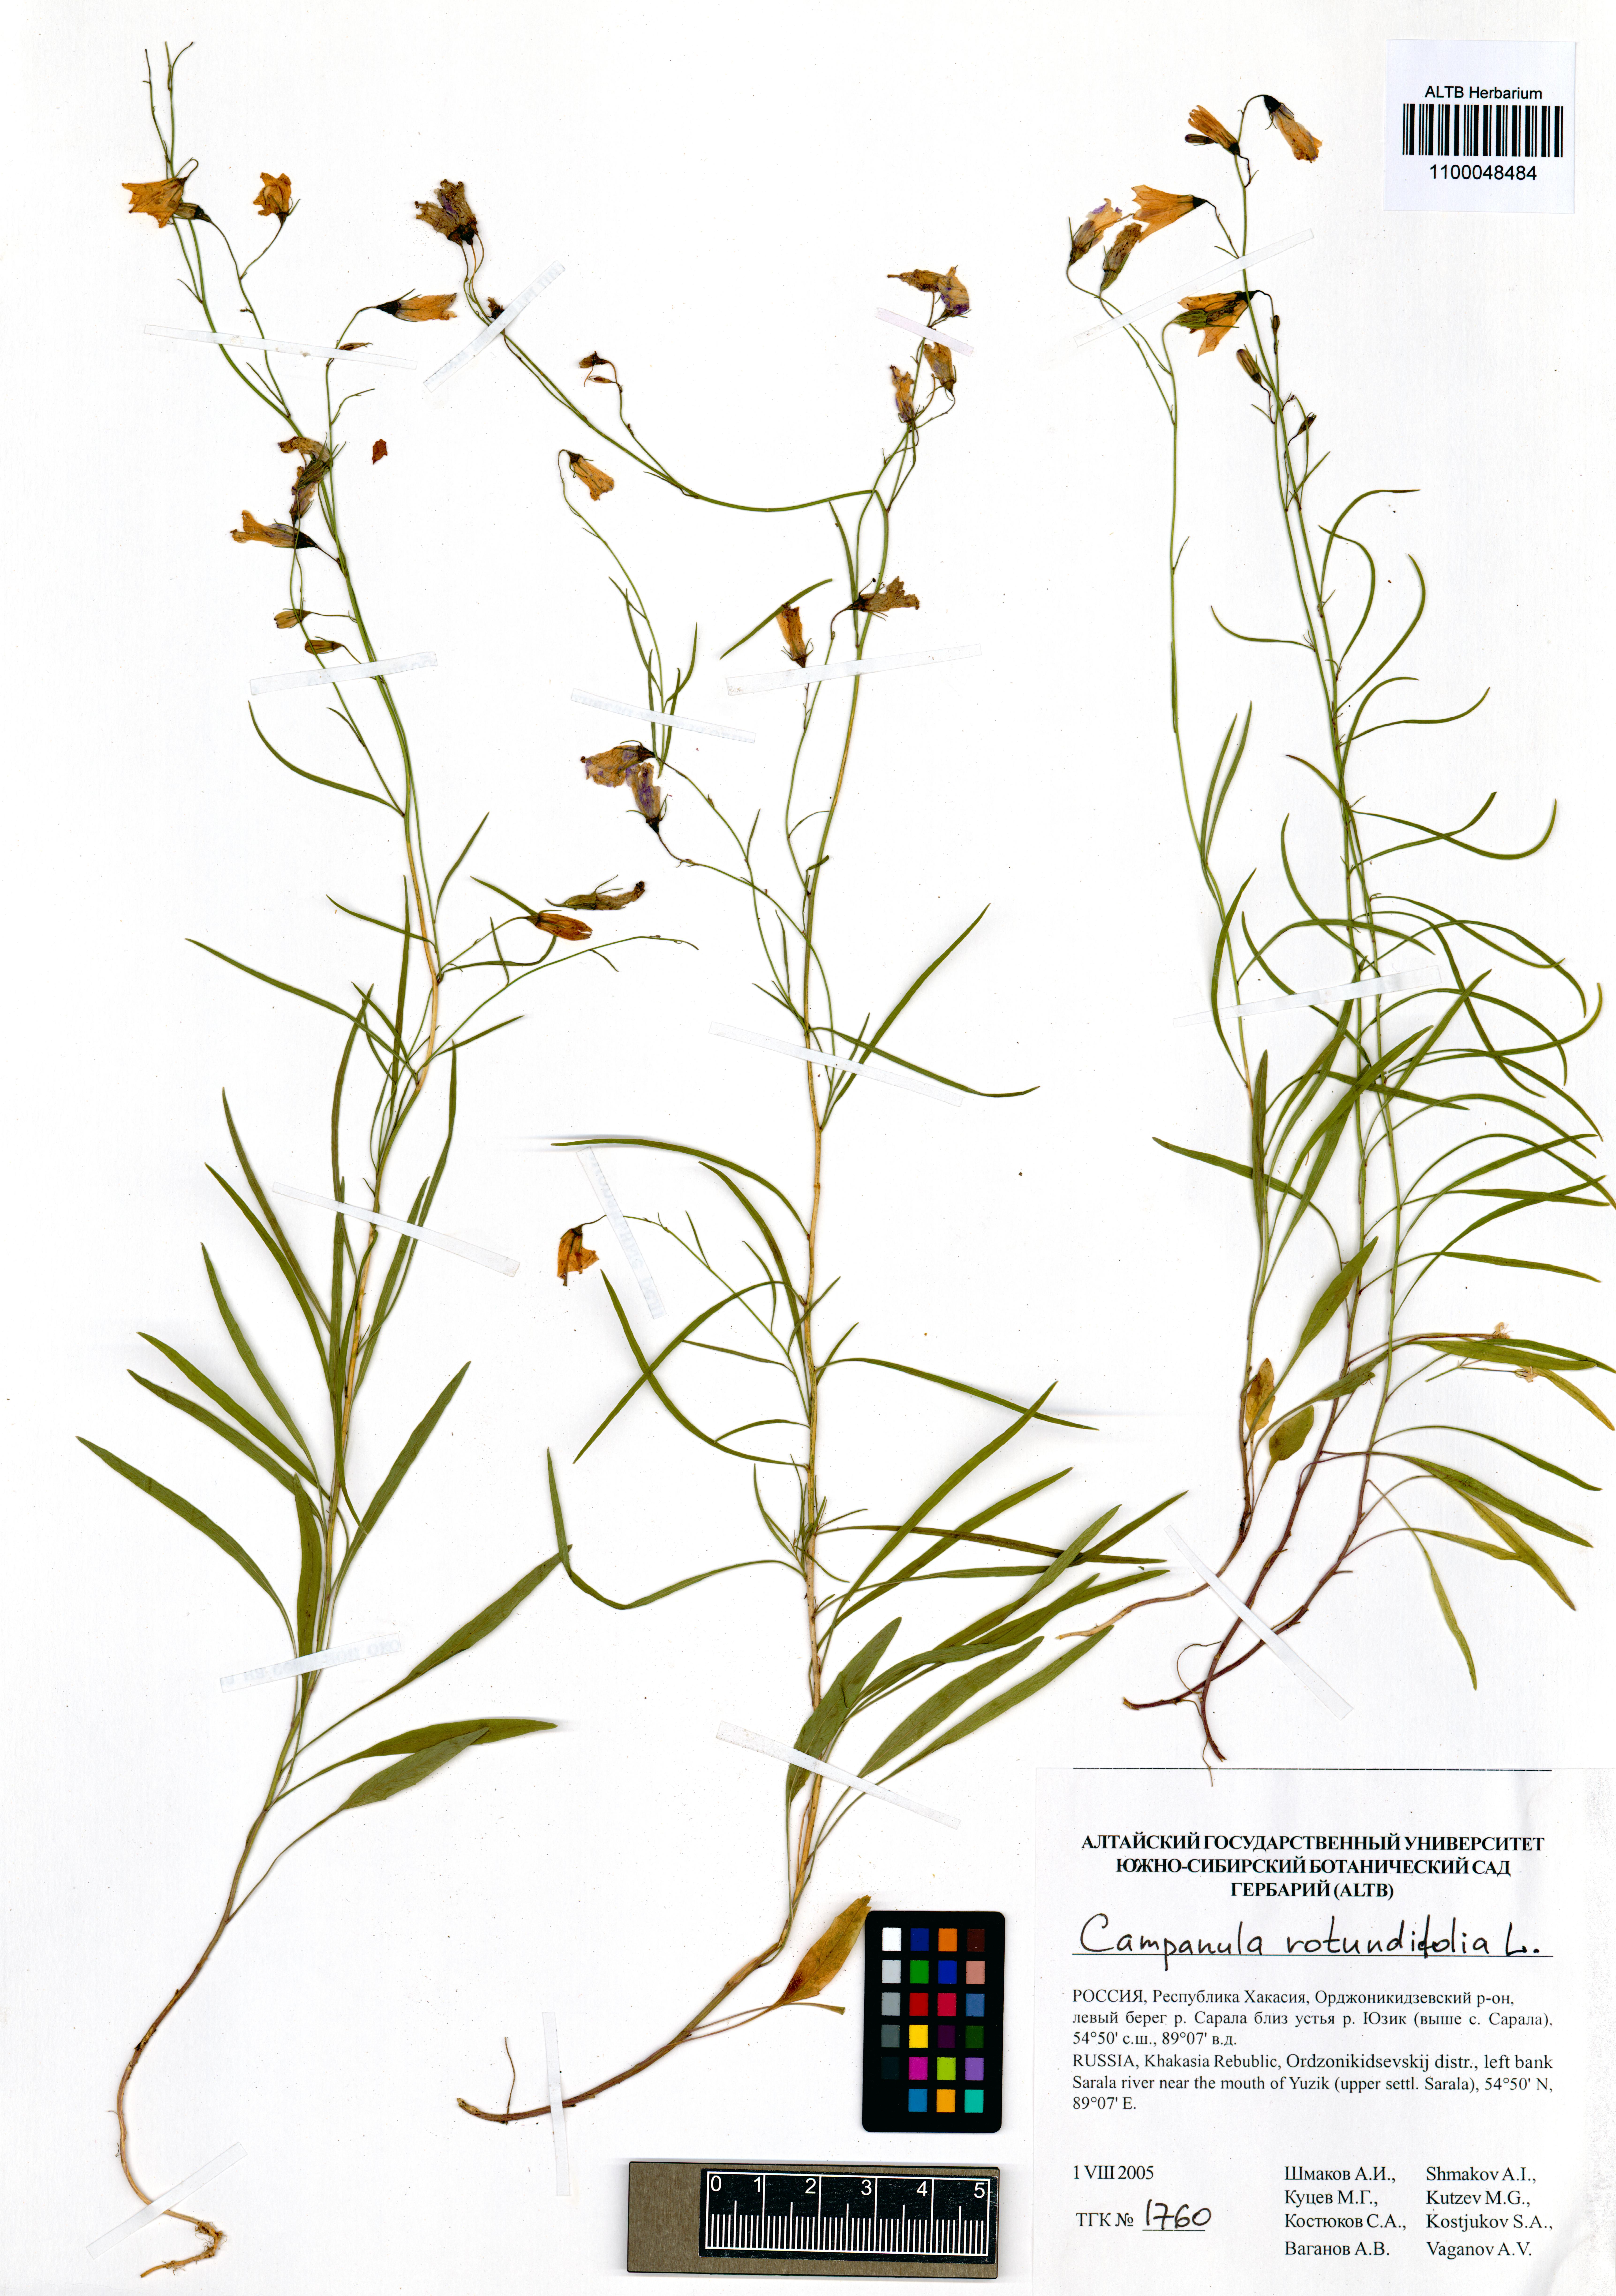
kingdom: Plantae
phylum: Tracheophyta
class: Magnoliopsida
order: Asterales
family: Campanulaceae
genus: Campanula
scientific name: Campanula rotundifolia
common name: Harebell
